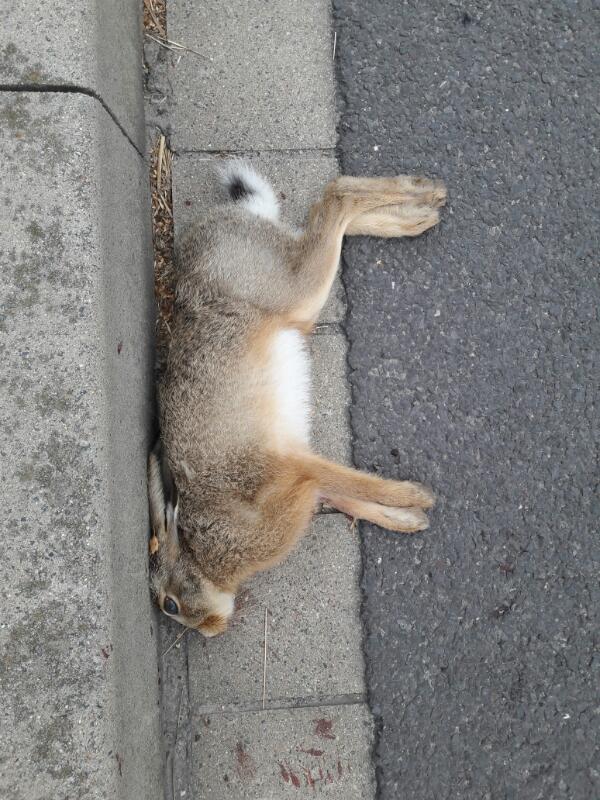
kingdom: Animalia
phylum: Chordata
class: Mammalia
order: Lagomorpha
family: Leporidae
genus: Lepus
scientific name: Lepus europaeus
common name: European hare
